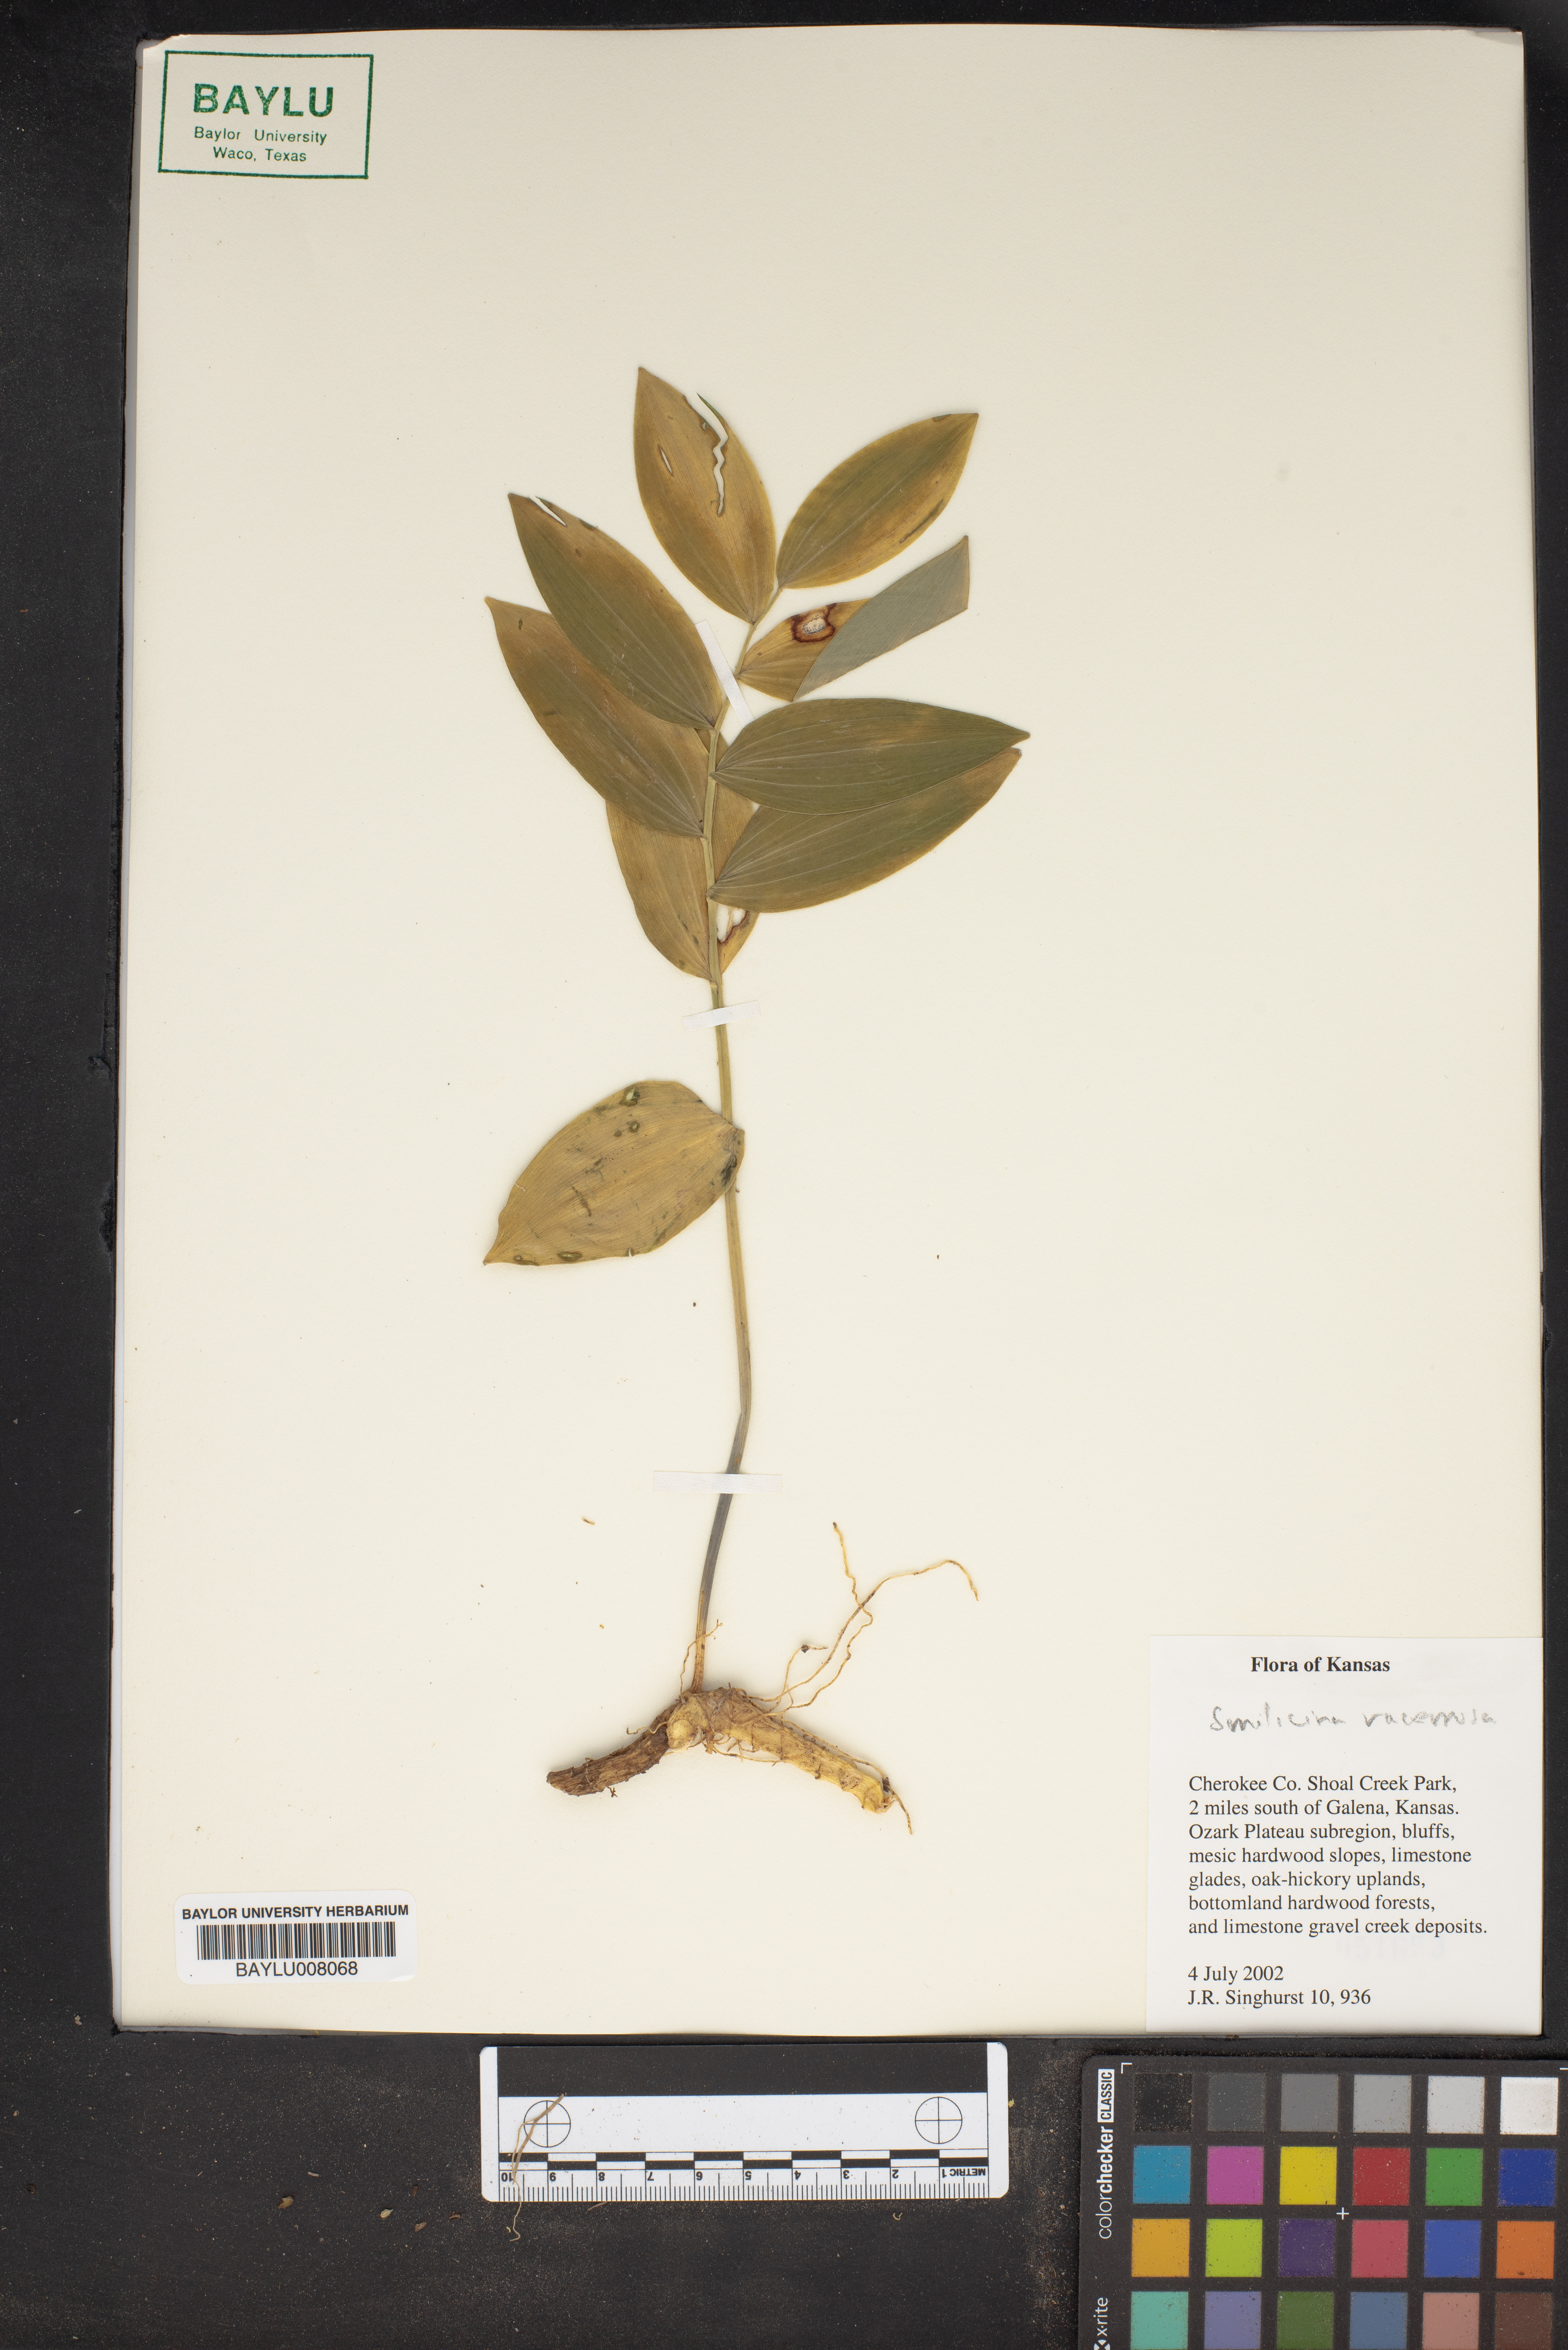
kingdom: Plantae
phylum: Tracheophyta
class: Liliopsida
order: Asparagales
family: Asparagaceae
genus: Maianthemum
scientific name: Maianthemum racemosum
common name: False spikenard
